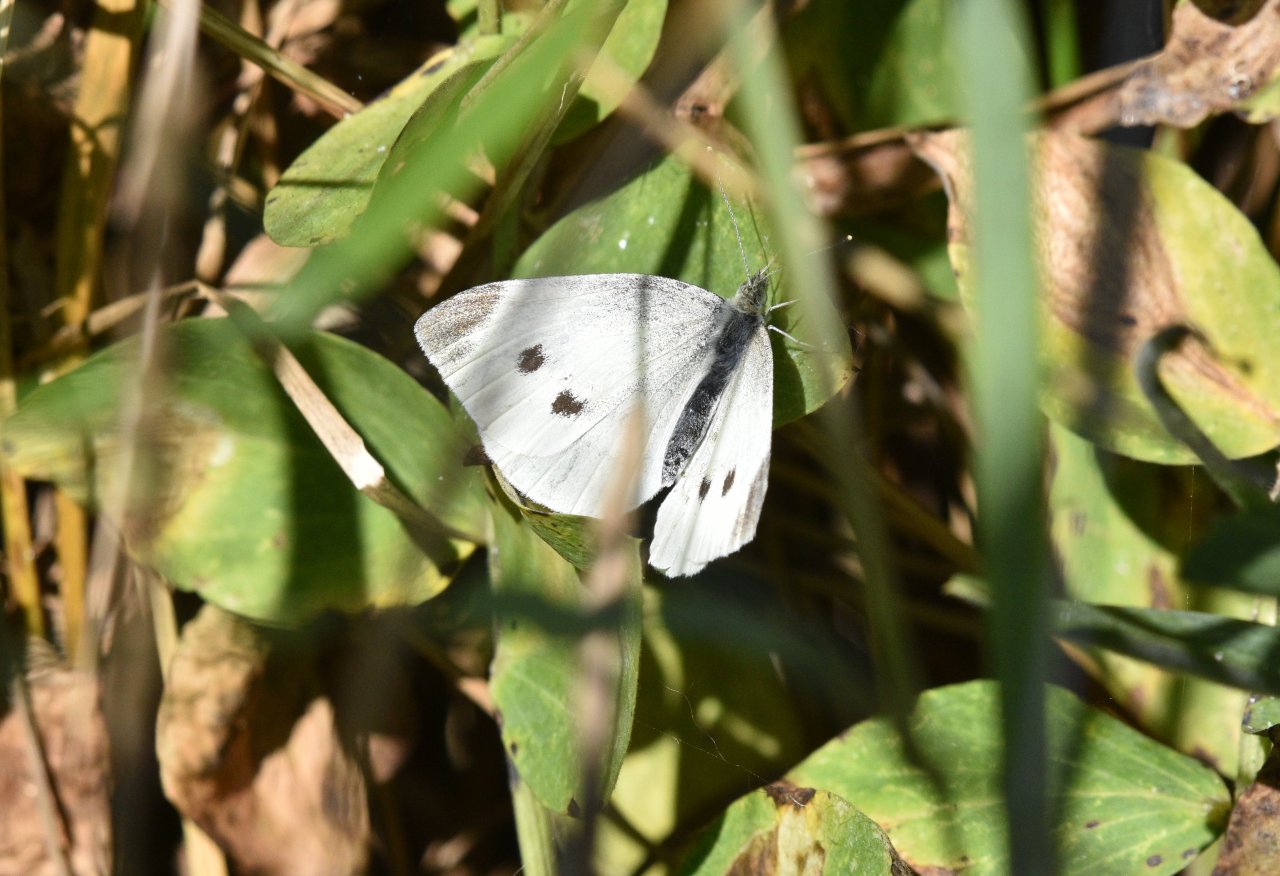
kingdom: Animalia
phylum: Arthropoda
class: Insecta
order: Lepidoptera
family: Pieridae
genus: Pieris
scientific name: Pieris rapae
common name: Cabbage White
